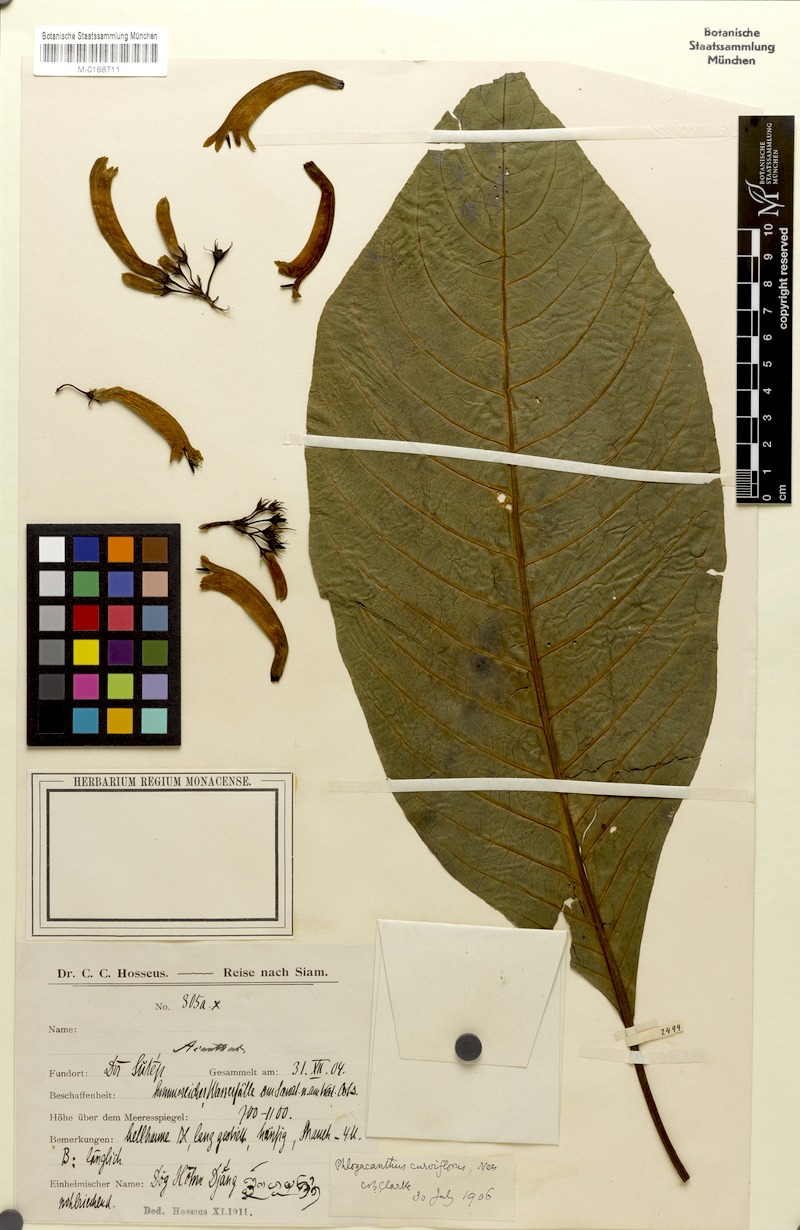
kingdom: Plantae
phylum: Tracheophyta
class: Magnoliopsida
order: Lamiales
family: Acanthaceae
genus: Phlogacanthus
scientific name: Phlogacanthus curviflorus
